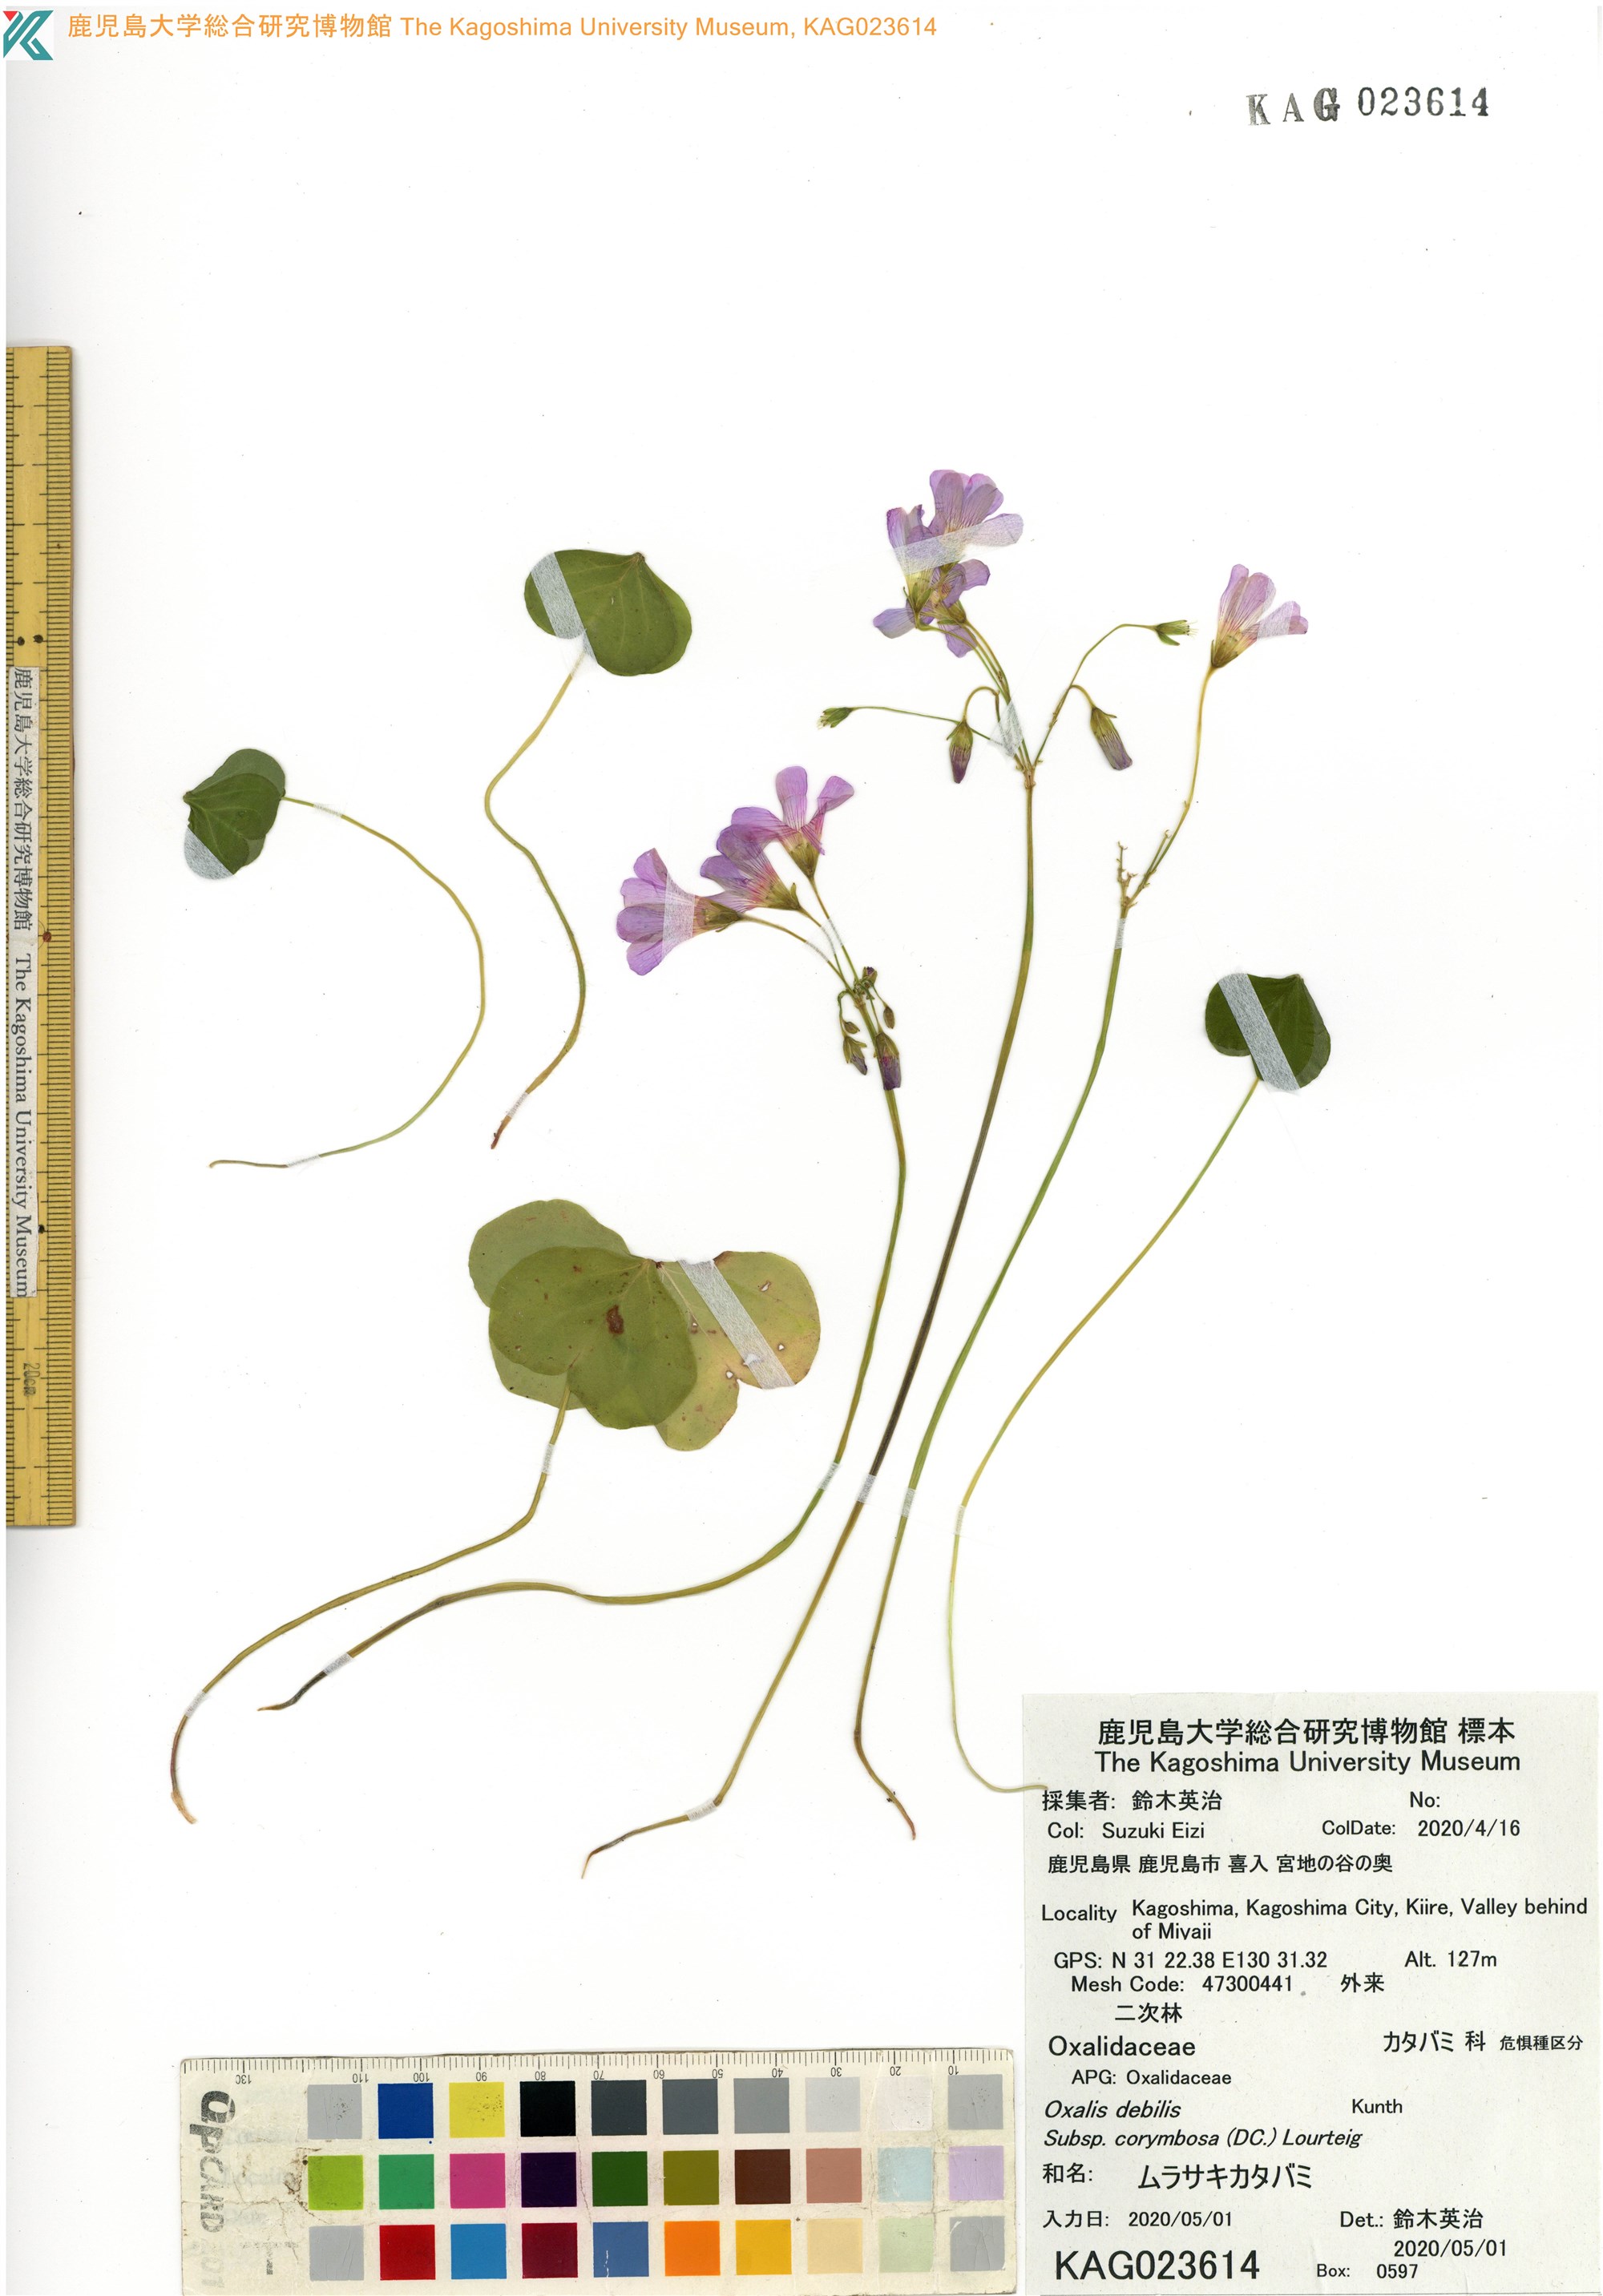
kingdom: Plantae
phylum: Tracheophyta
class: Magnoliopsida
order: Oxalidales
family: Oxalidaceae
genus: Oxalis
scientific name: Oxalis debilis
